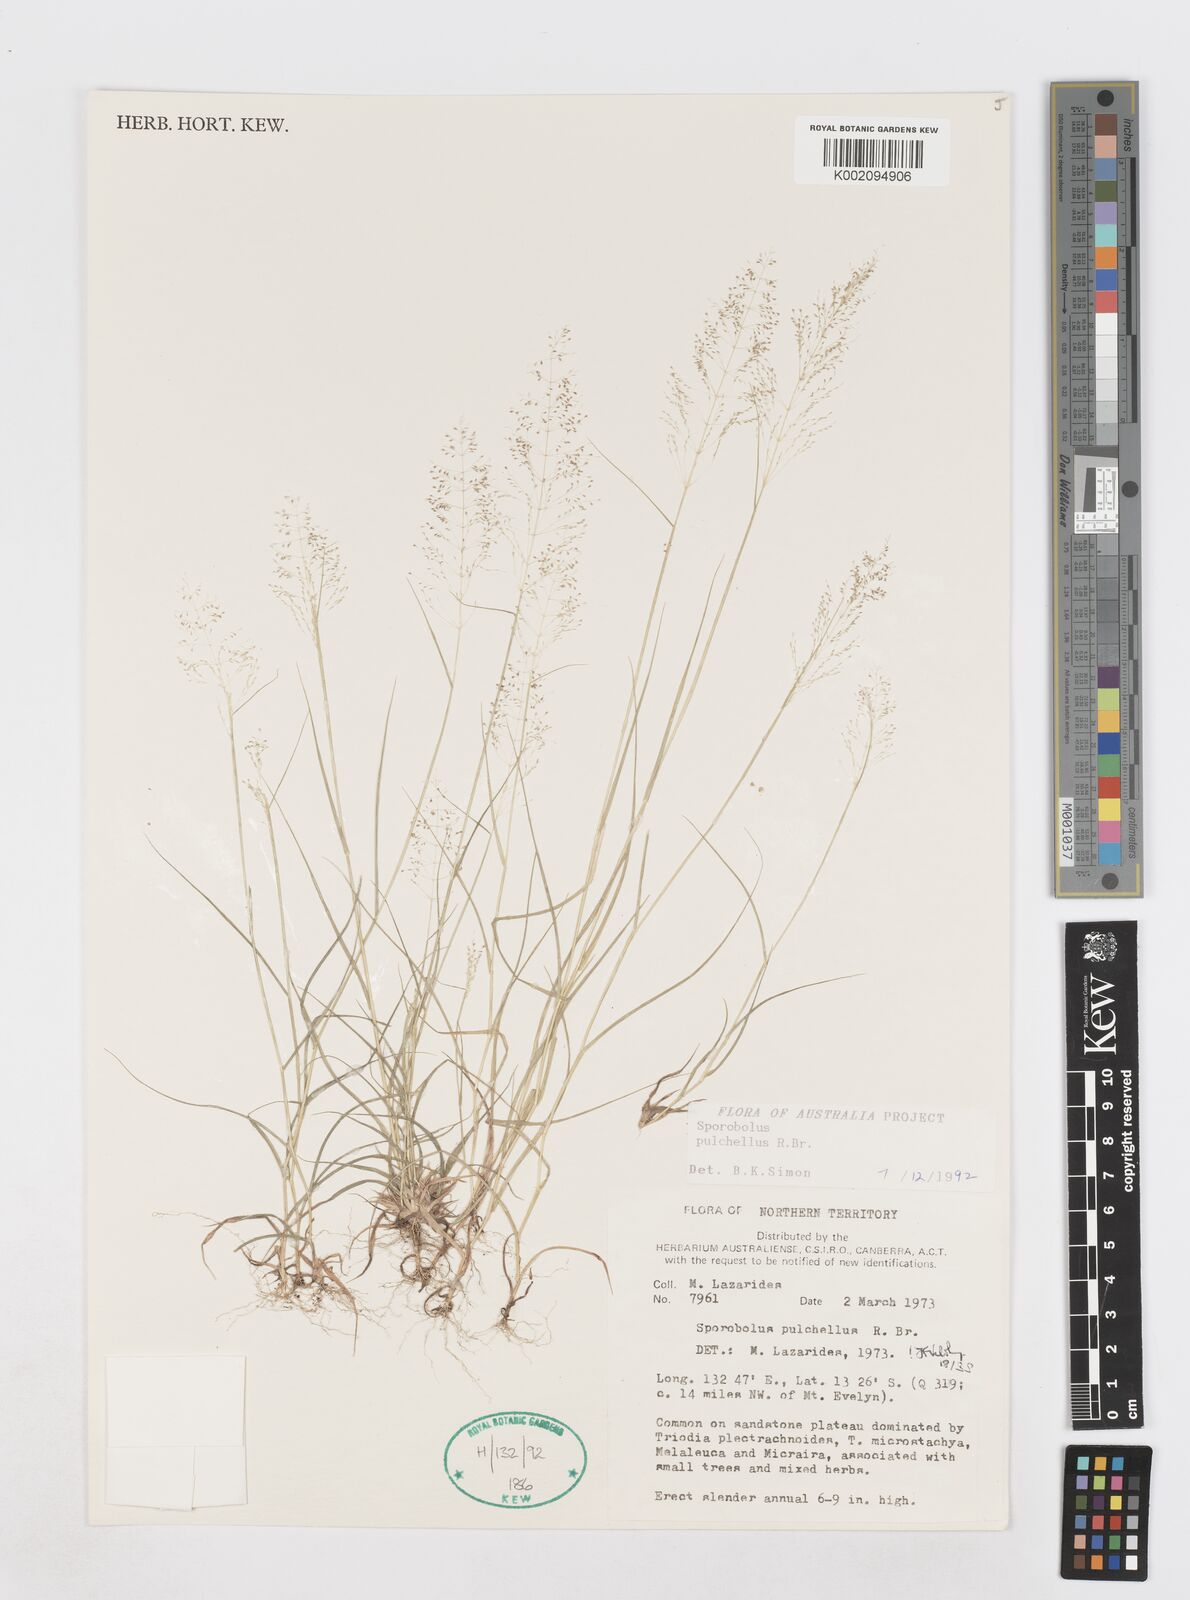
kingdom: Plantae
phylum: Tracheophyta
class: Liliopsida
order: Poales
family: Poaceae
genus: Sporobolus
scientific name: Sporobolus pulchellus
